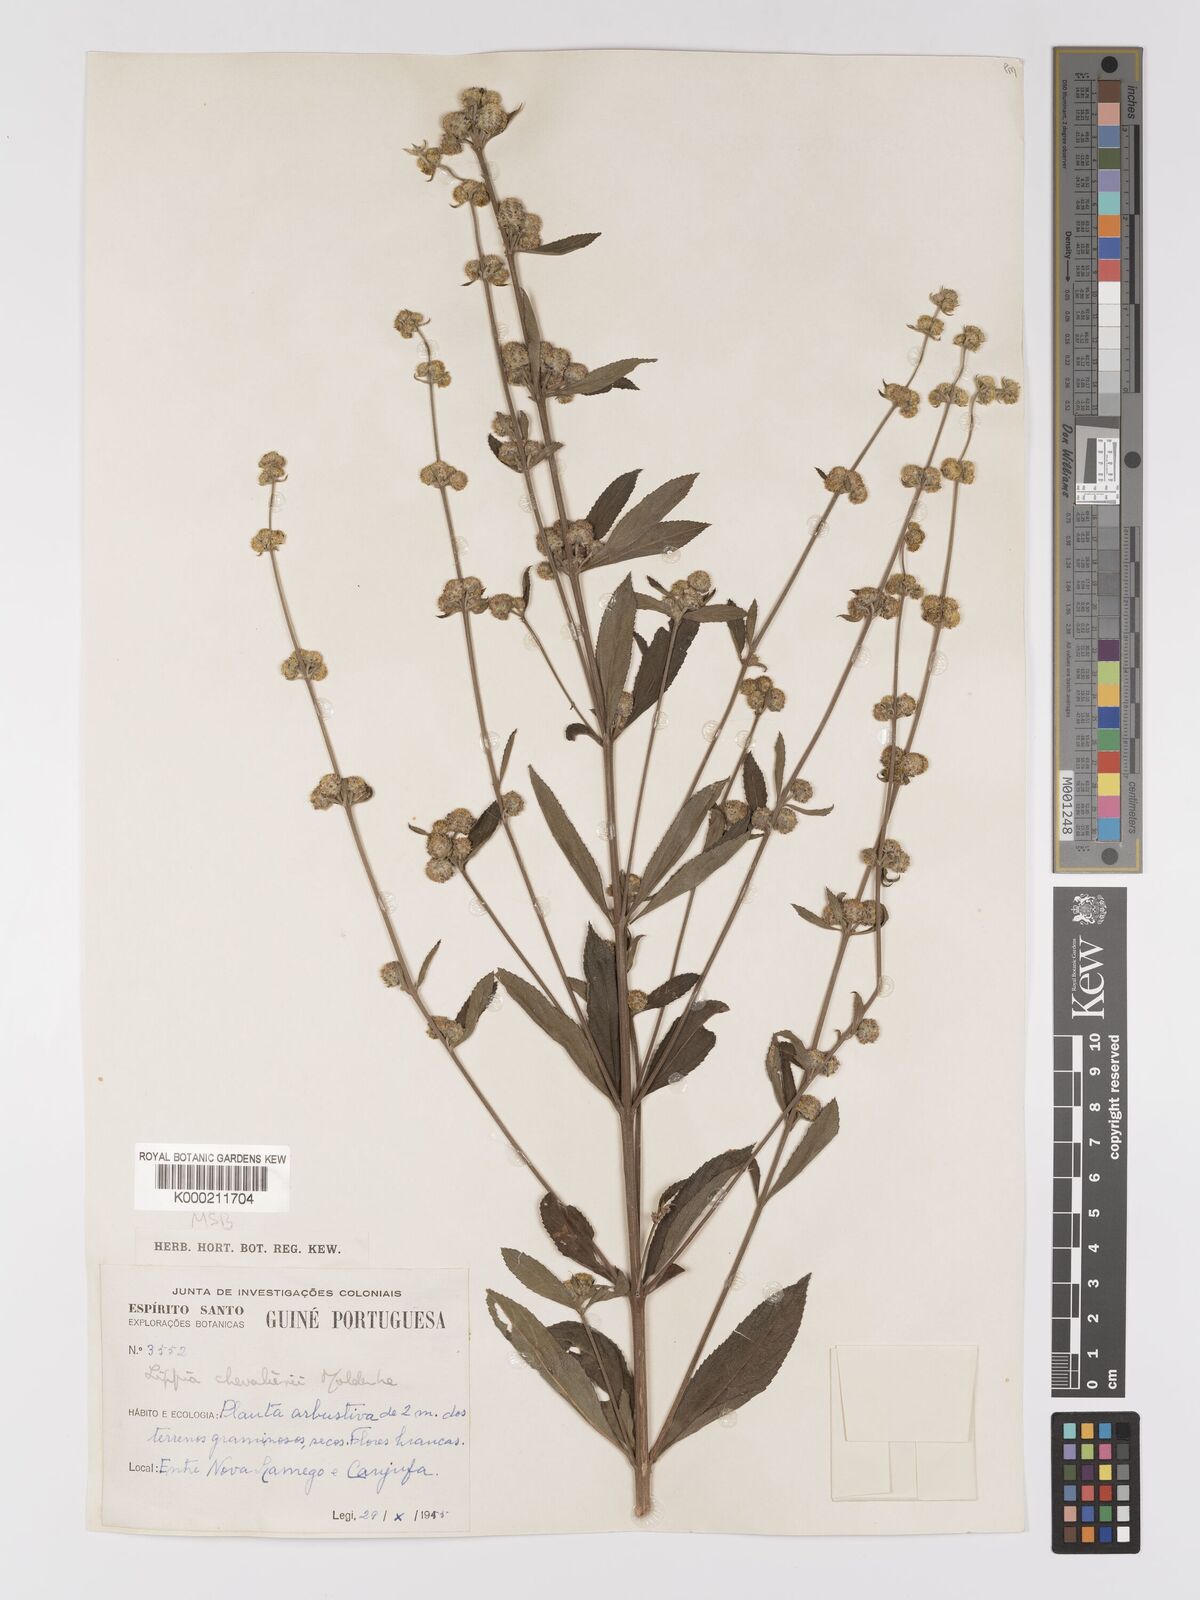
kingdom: Plantae
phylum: Tracheophyta
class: Magnoliopsida
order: Lamiales
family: Verbenaceae
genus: Lippia
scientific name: Lippia chevalieri
